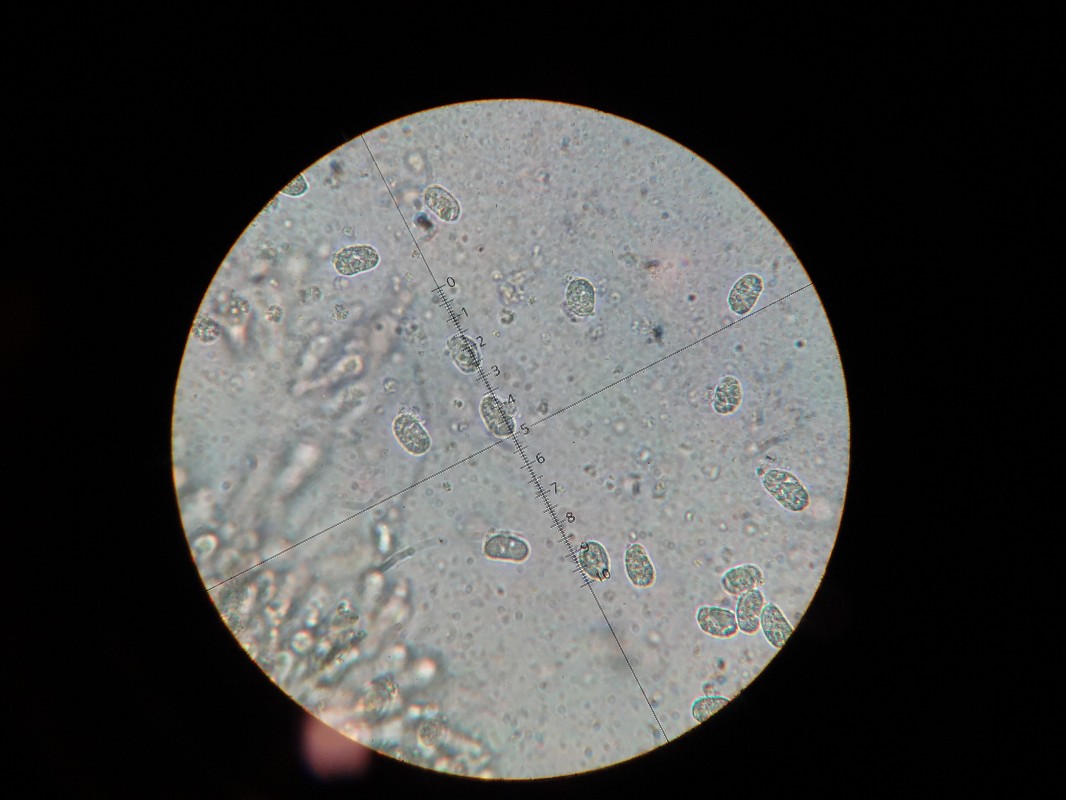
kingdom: Fungi
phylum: Basidiomycota
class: Agaricomycetes
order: Agaricales
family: Hygrophoraceae
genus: Hygrocybe
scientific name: Hygrocybe conica
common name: kegle-vokshat
